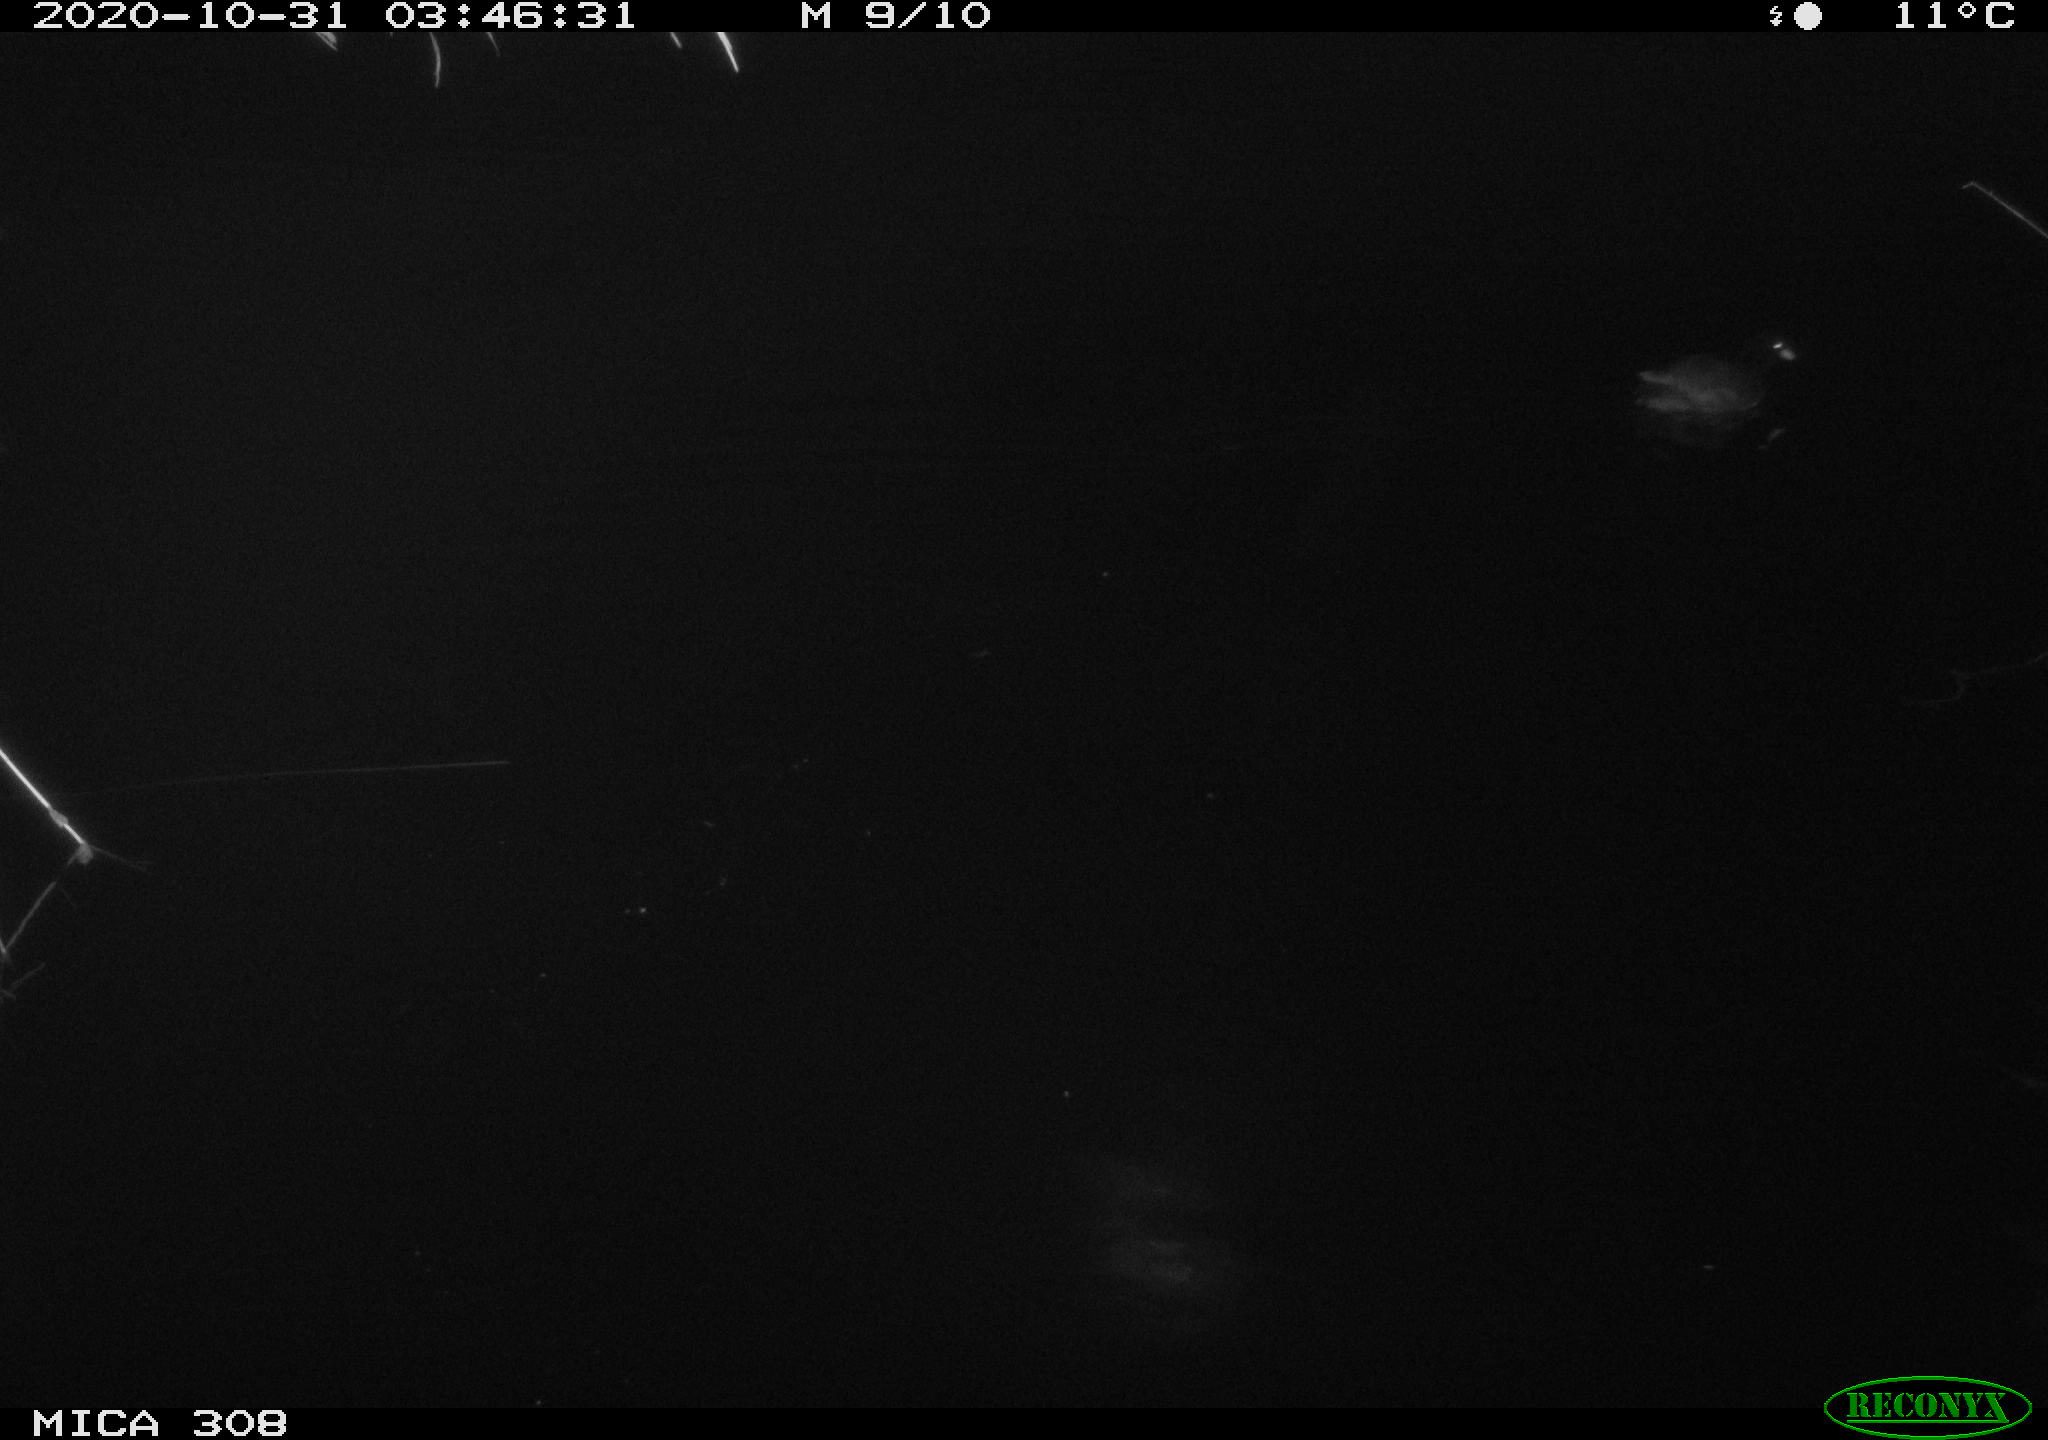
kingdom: Animalia
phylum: Chordata
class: Aves
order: Gruiformes
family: Rallidae
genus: Gallinula
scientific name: Gallinula chloropus
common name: Common moorhen
